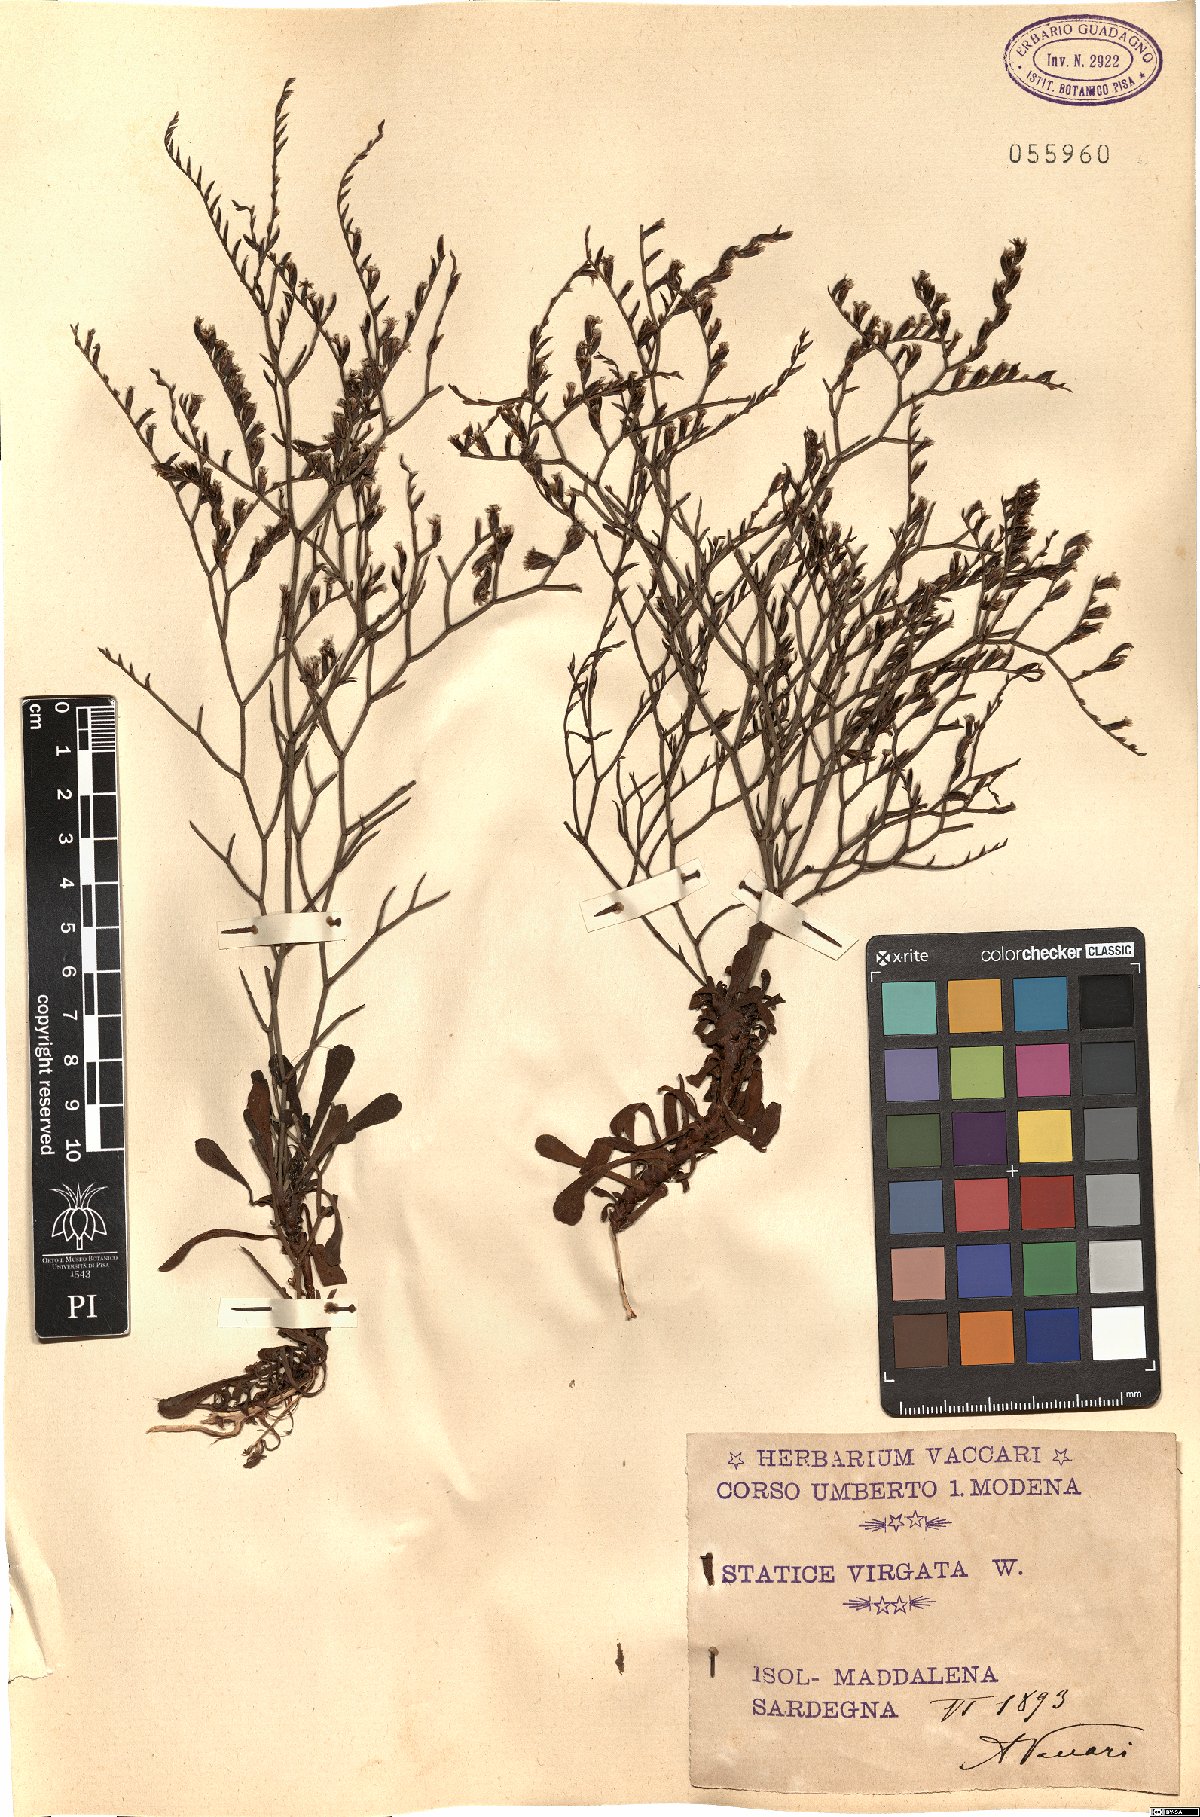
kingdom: Plantae
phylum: Tracheophyta
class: Magnoliopsida
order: Caryophyllales
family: Plumbaginaceae
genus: Limonium
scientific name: Limonium virgatum
